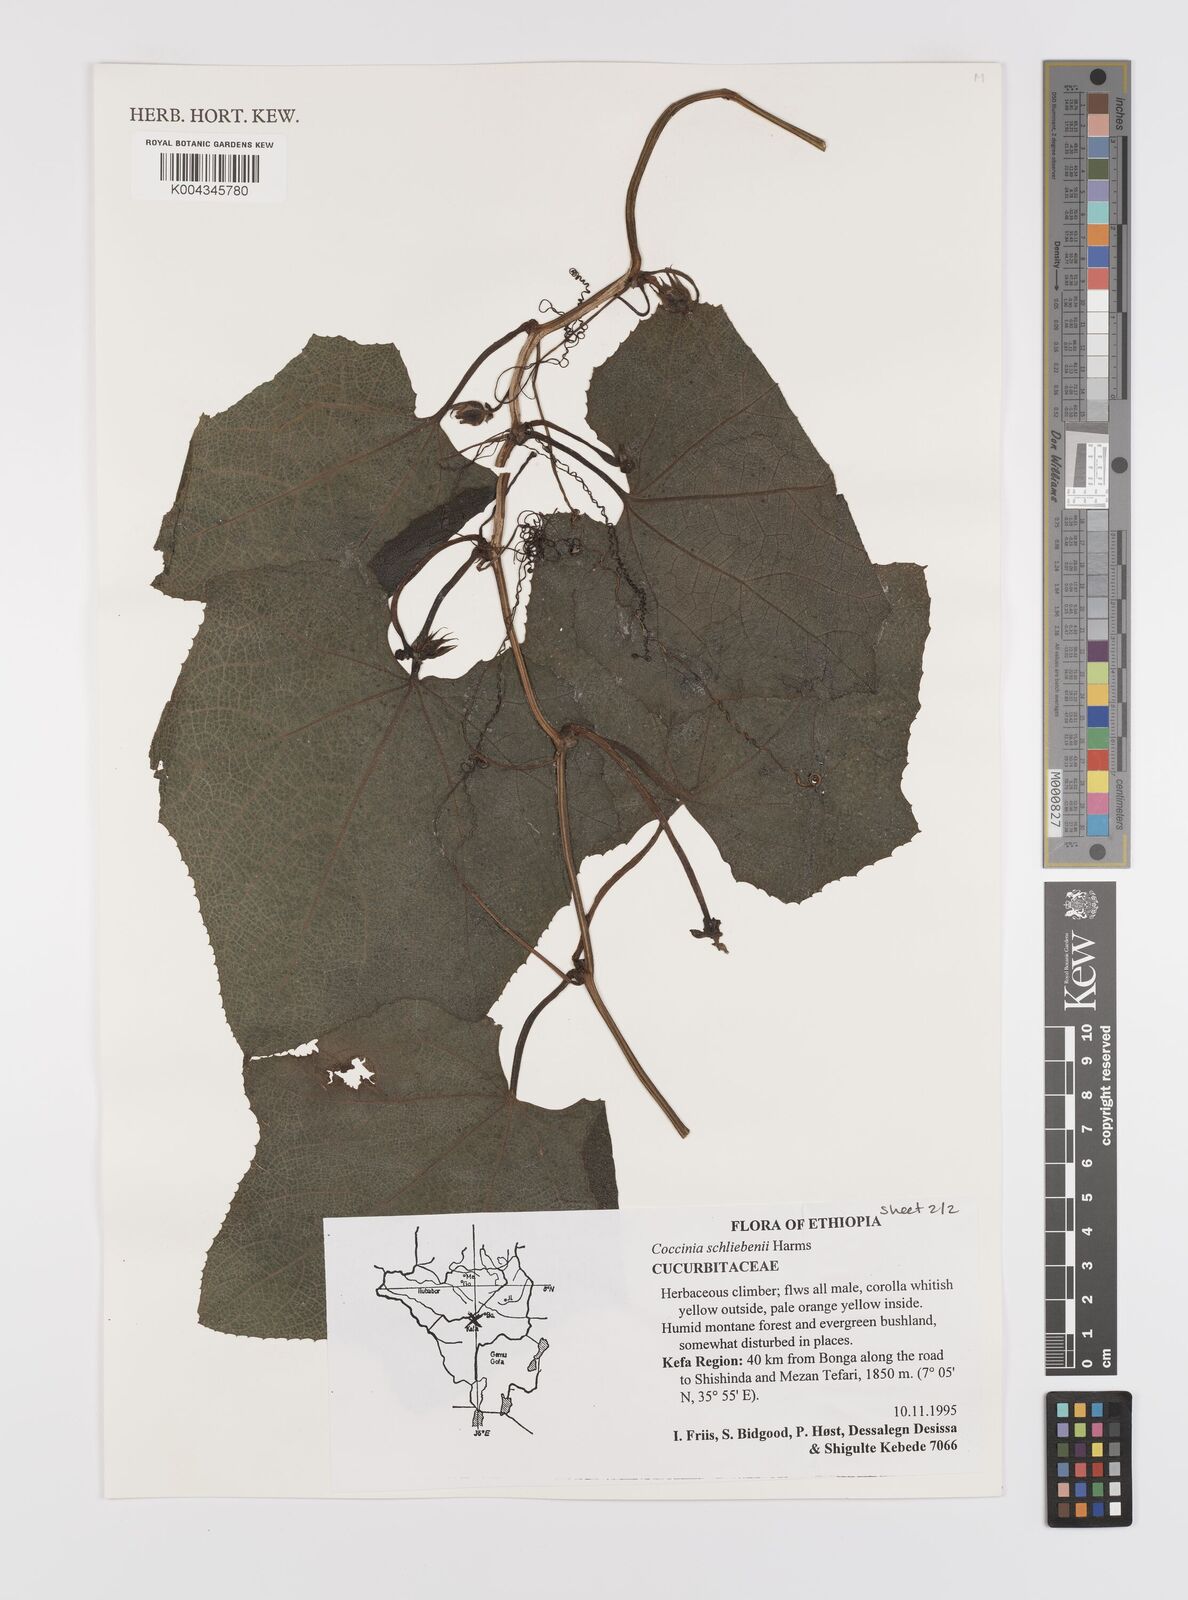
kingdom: Plantae
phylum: Tracheophyta
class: Magnoliopsida
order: Cucurbitales
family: Cucurbitaceae
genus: Coccinia
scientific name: Coccinia schliebenii
